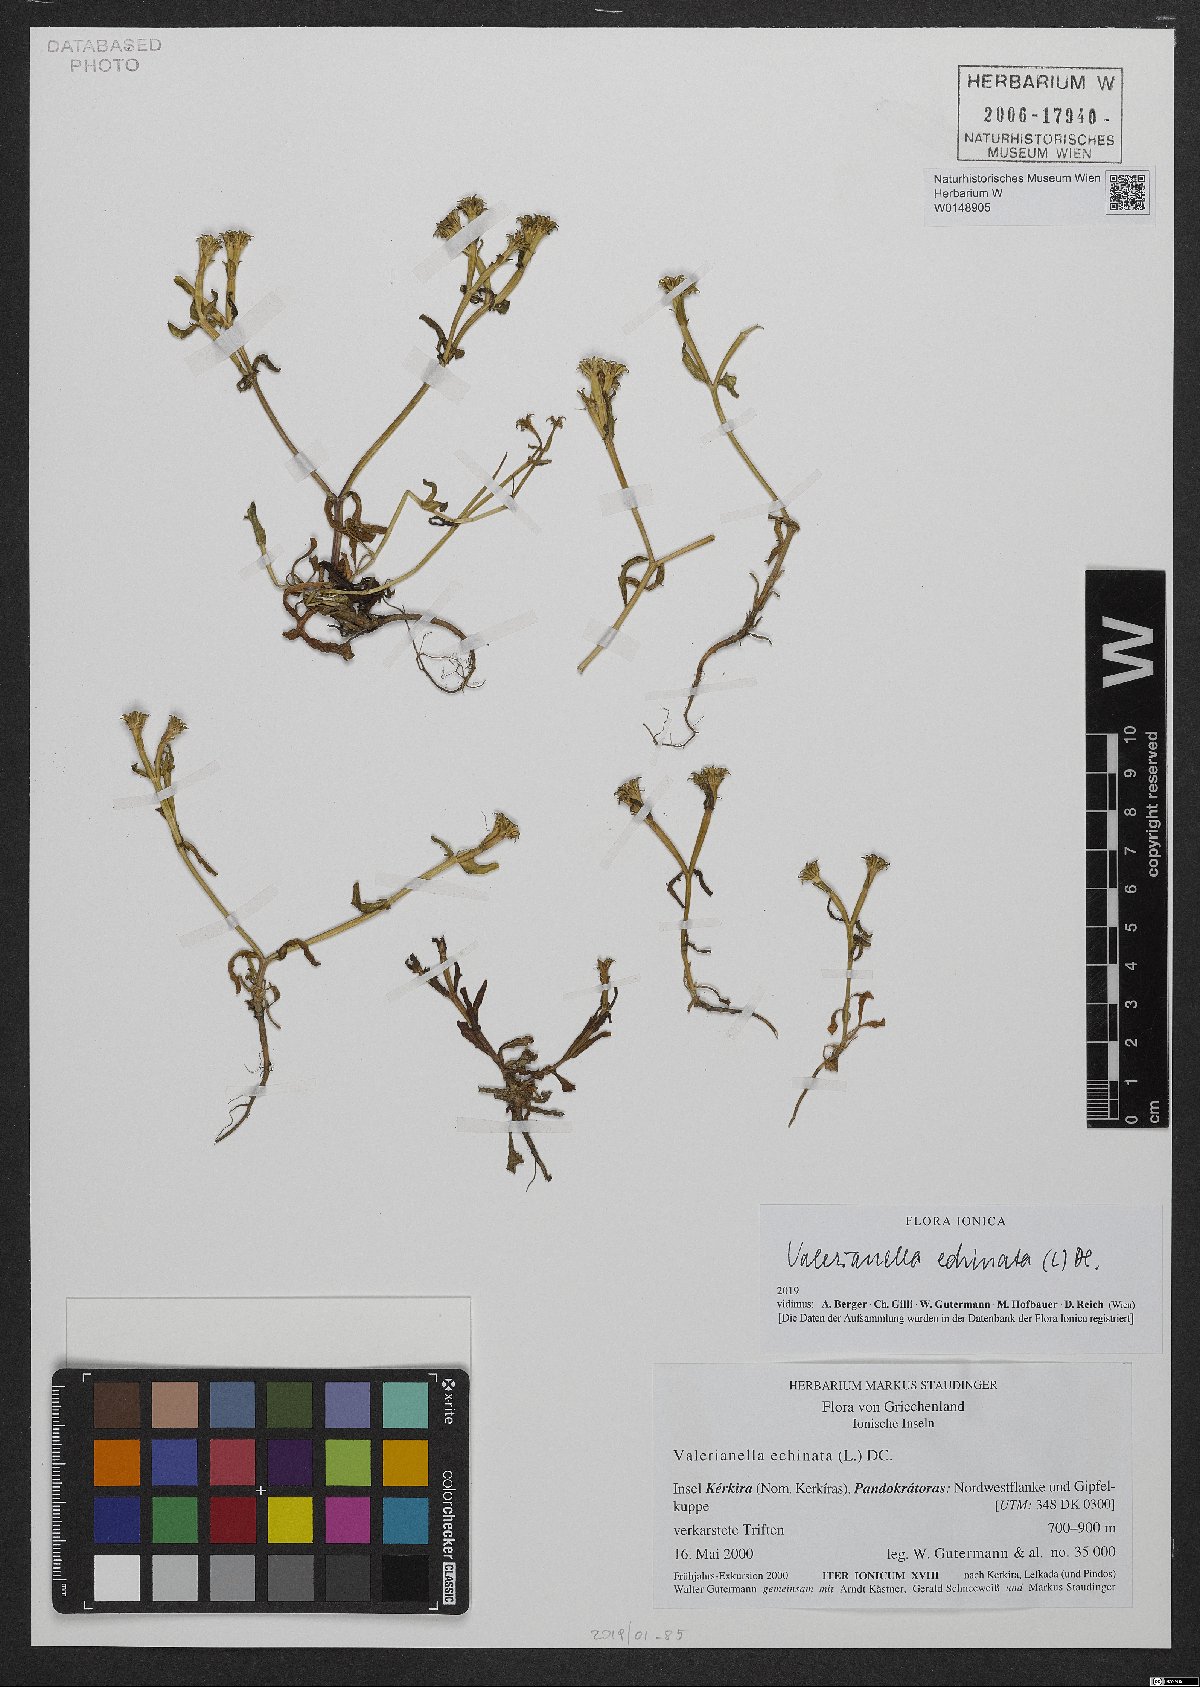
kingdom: Plantae
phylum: Tracheophyta
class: Magnoliopsida
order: Dipsacales
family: Caprifoliaceae
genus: Valerianella
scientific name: Valerianella echinata
